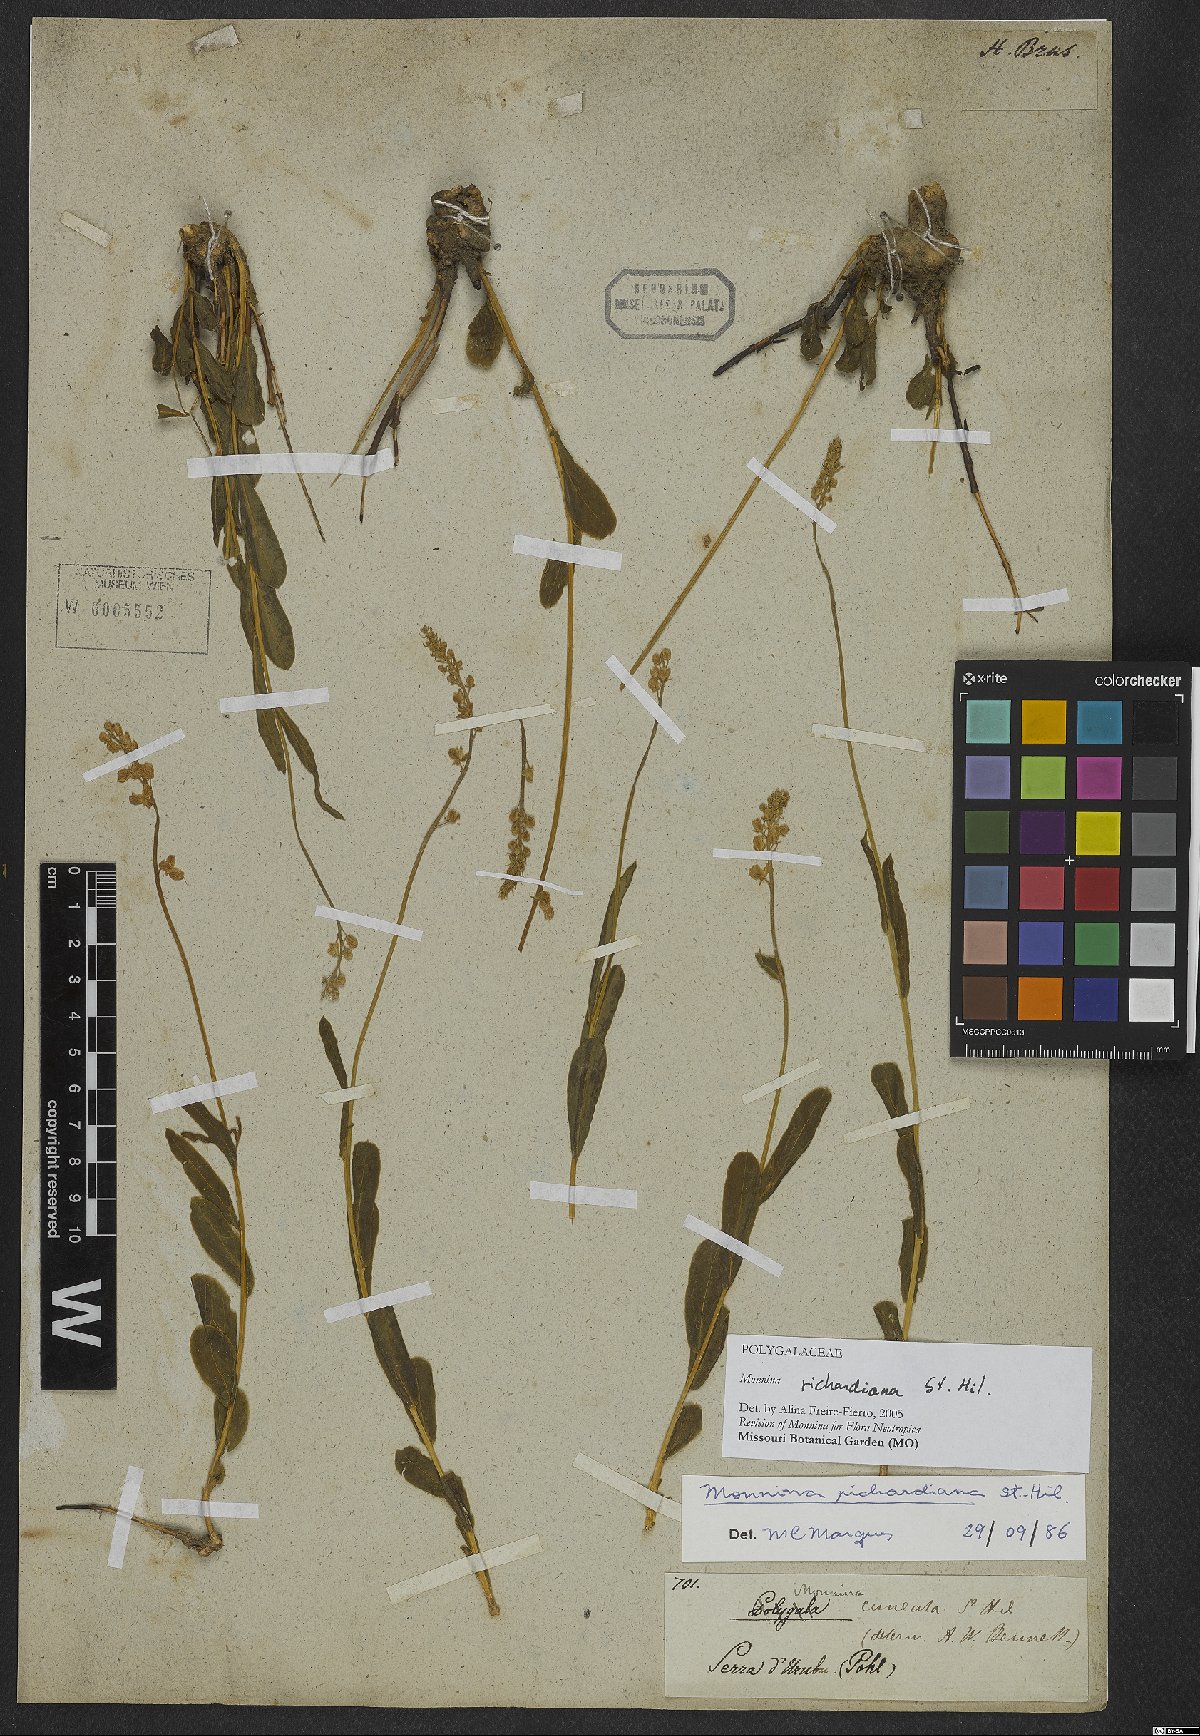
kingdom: Plantae
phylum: Tracheophyta
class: Magnoliopsida
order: Fabales
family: Polygalaceae
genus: Monnina
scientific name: Monnina richardiana
